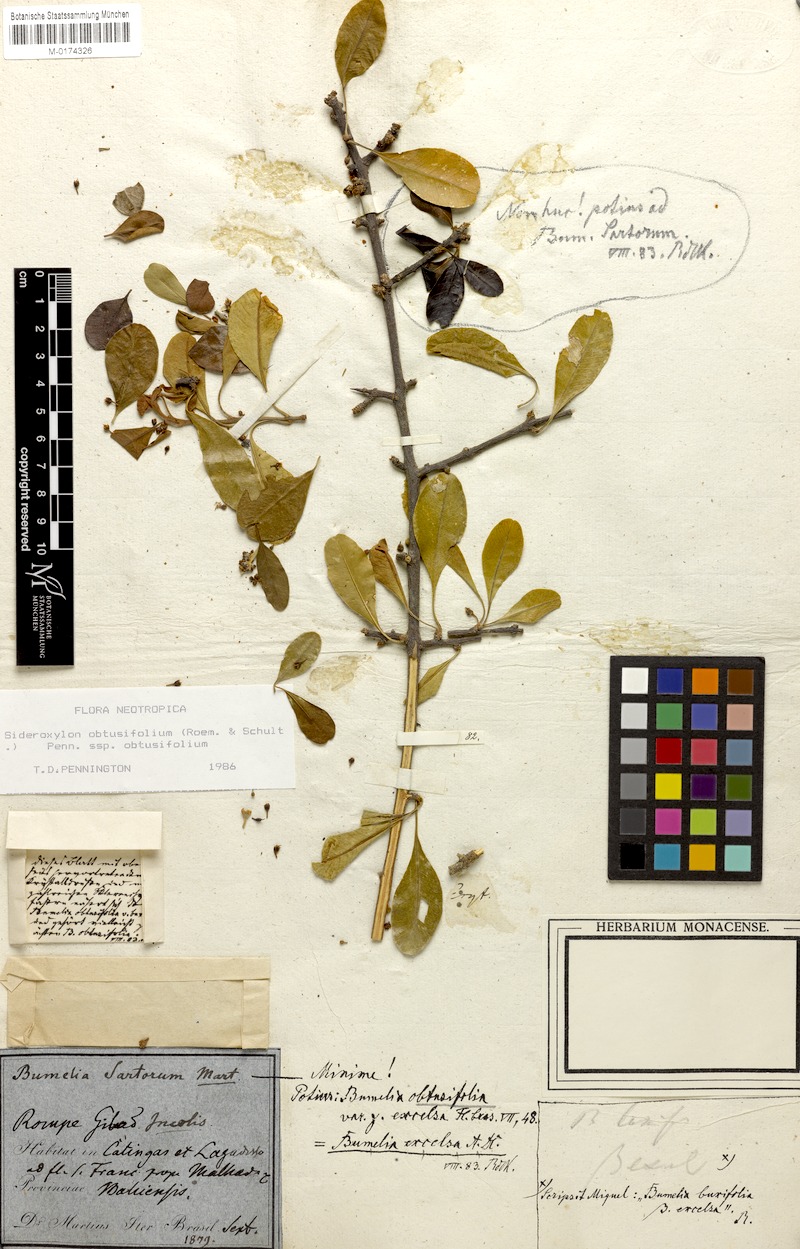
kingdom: Plantae
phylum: Tracheophyta
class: Magnoliopsida
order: Ericales
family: Sapotaceae
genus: Sideroxylon
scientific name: Sideroxylon obtusifolium
